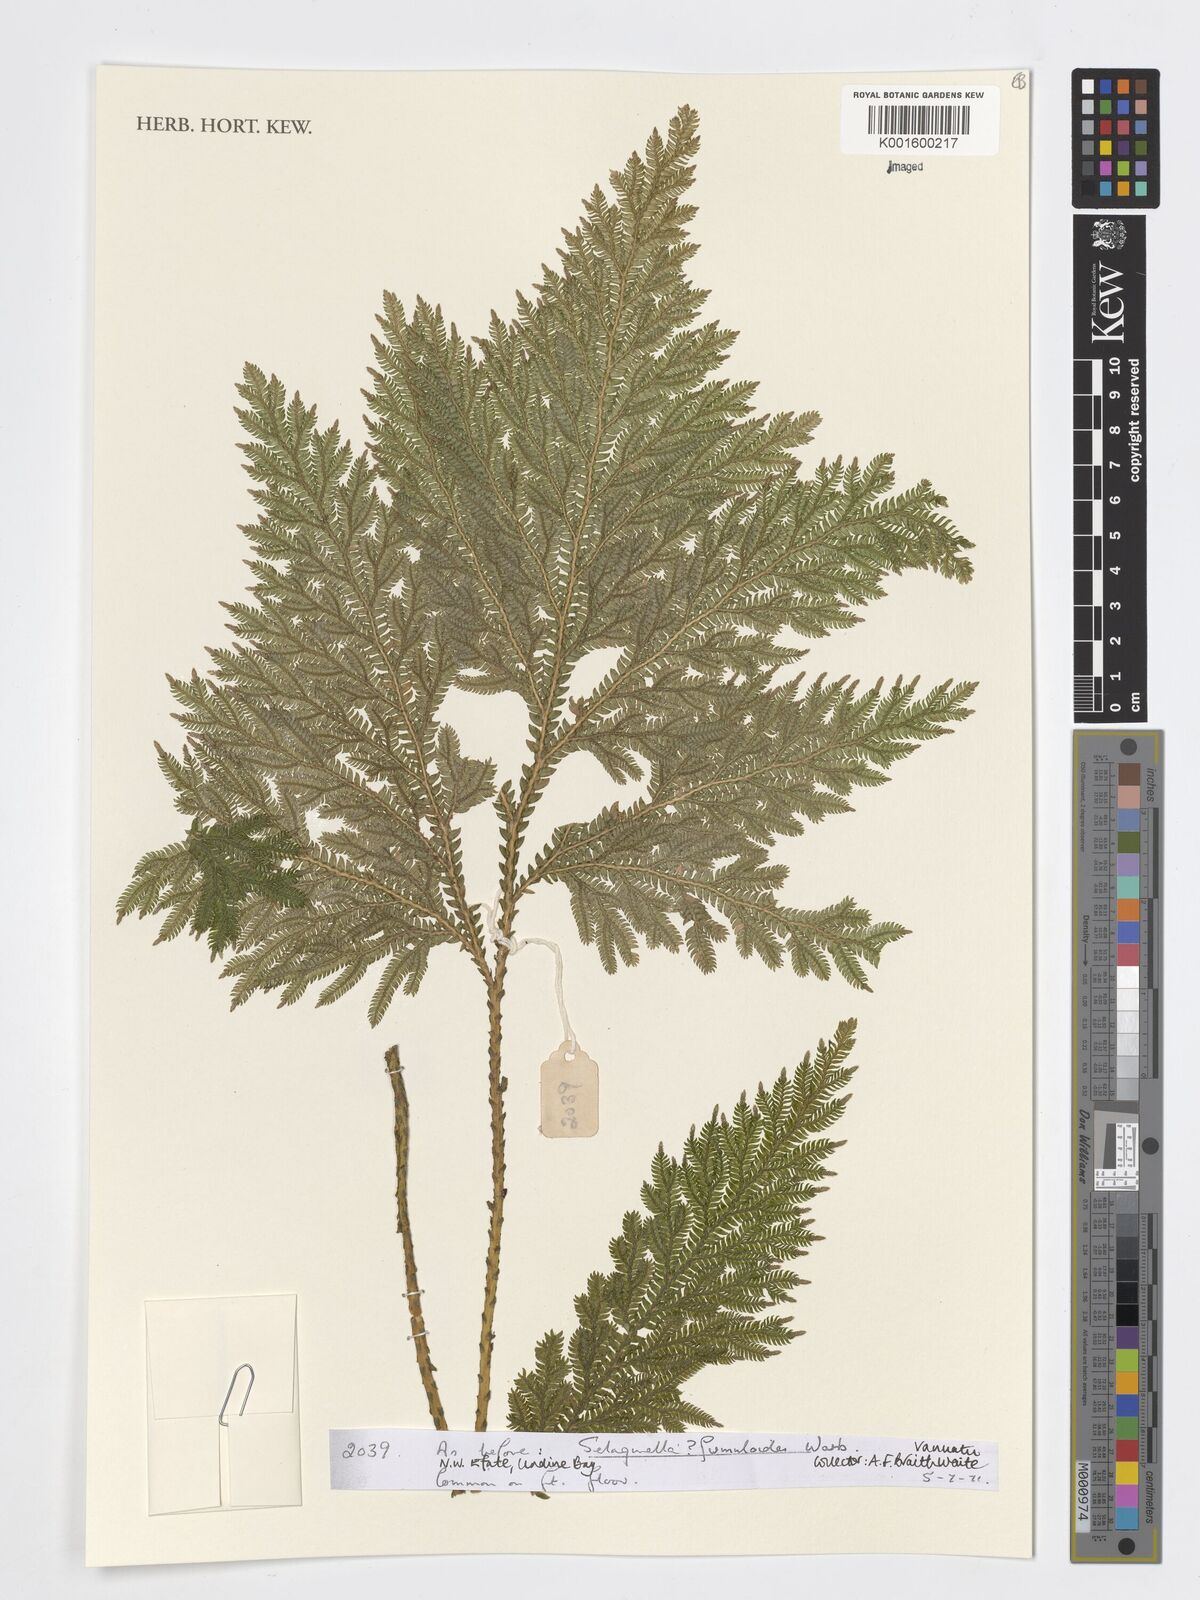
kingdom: Plantae
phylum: Tracheophyta
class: Lycopodiopsida
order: Selaginellales
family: Selaginellaceae
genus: Selaginella
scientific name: Selaginella firmuloides
